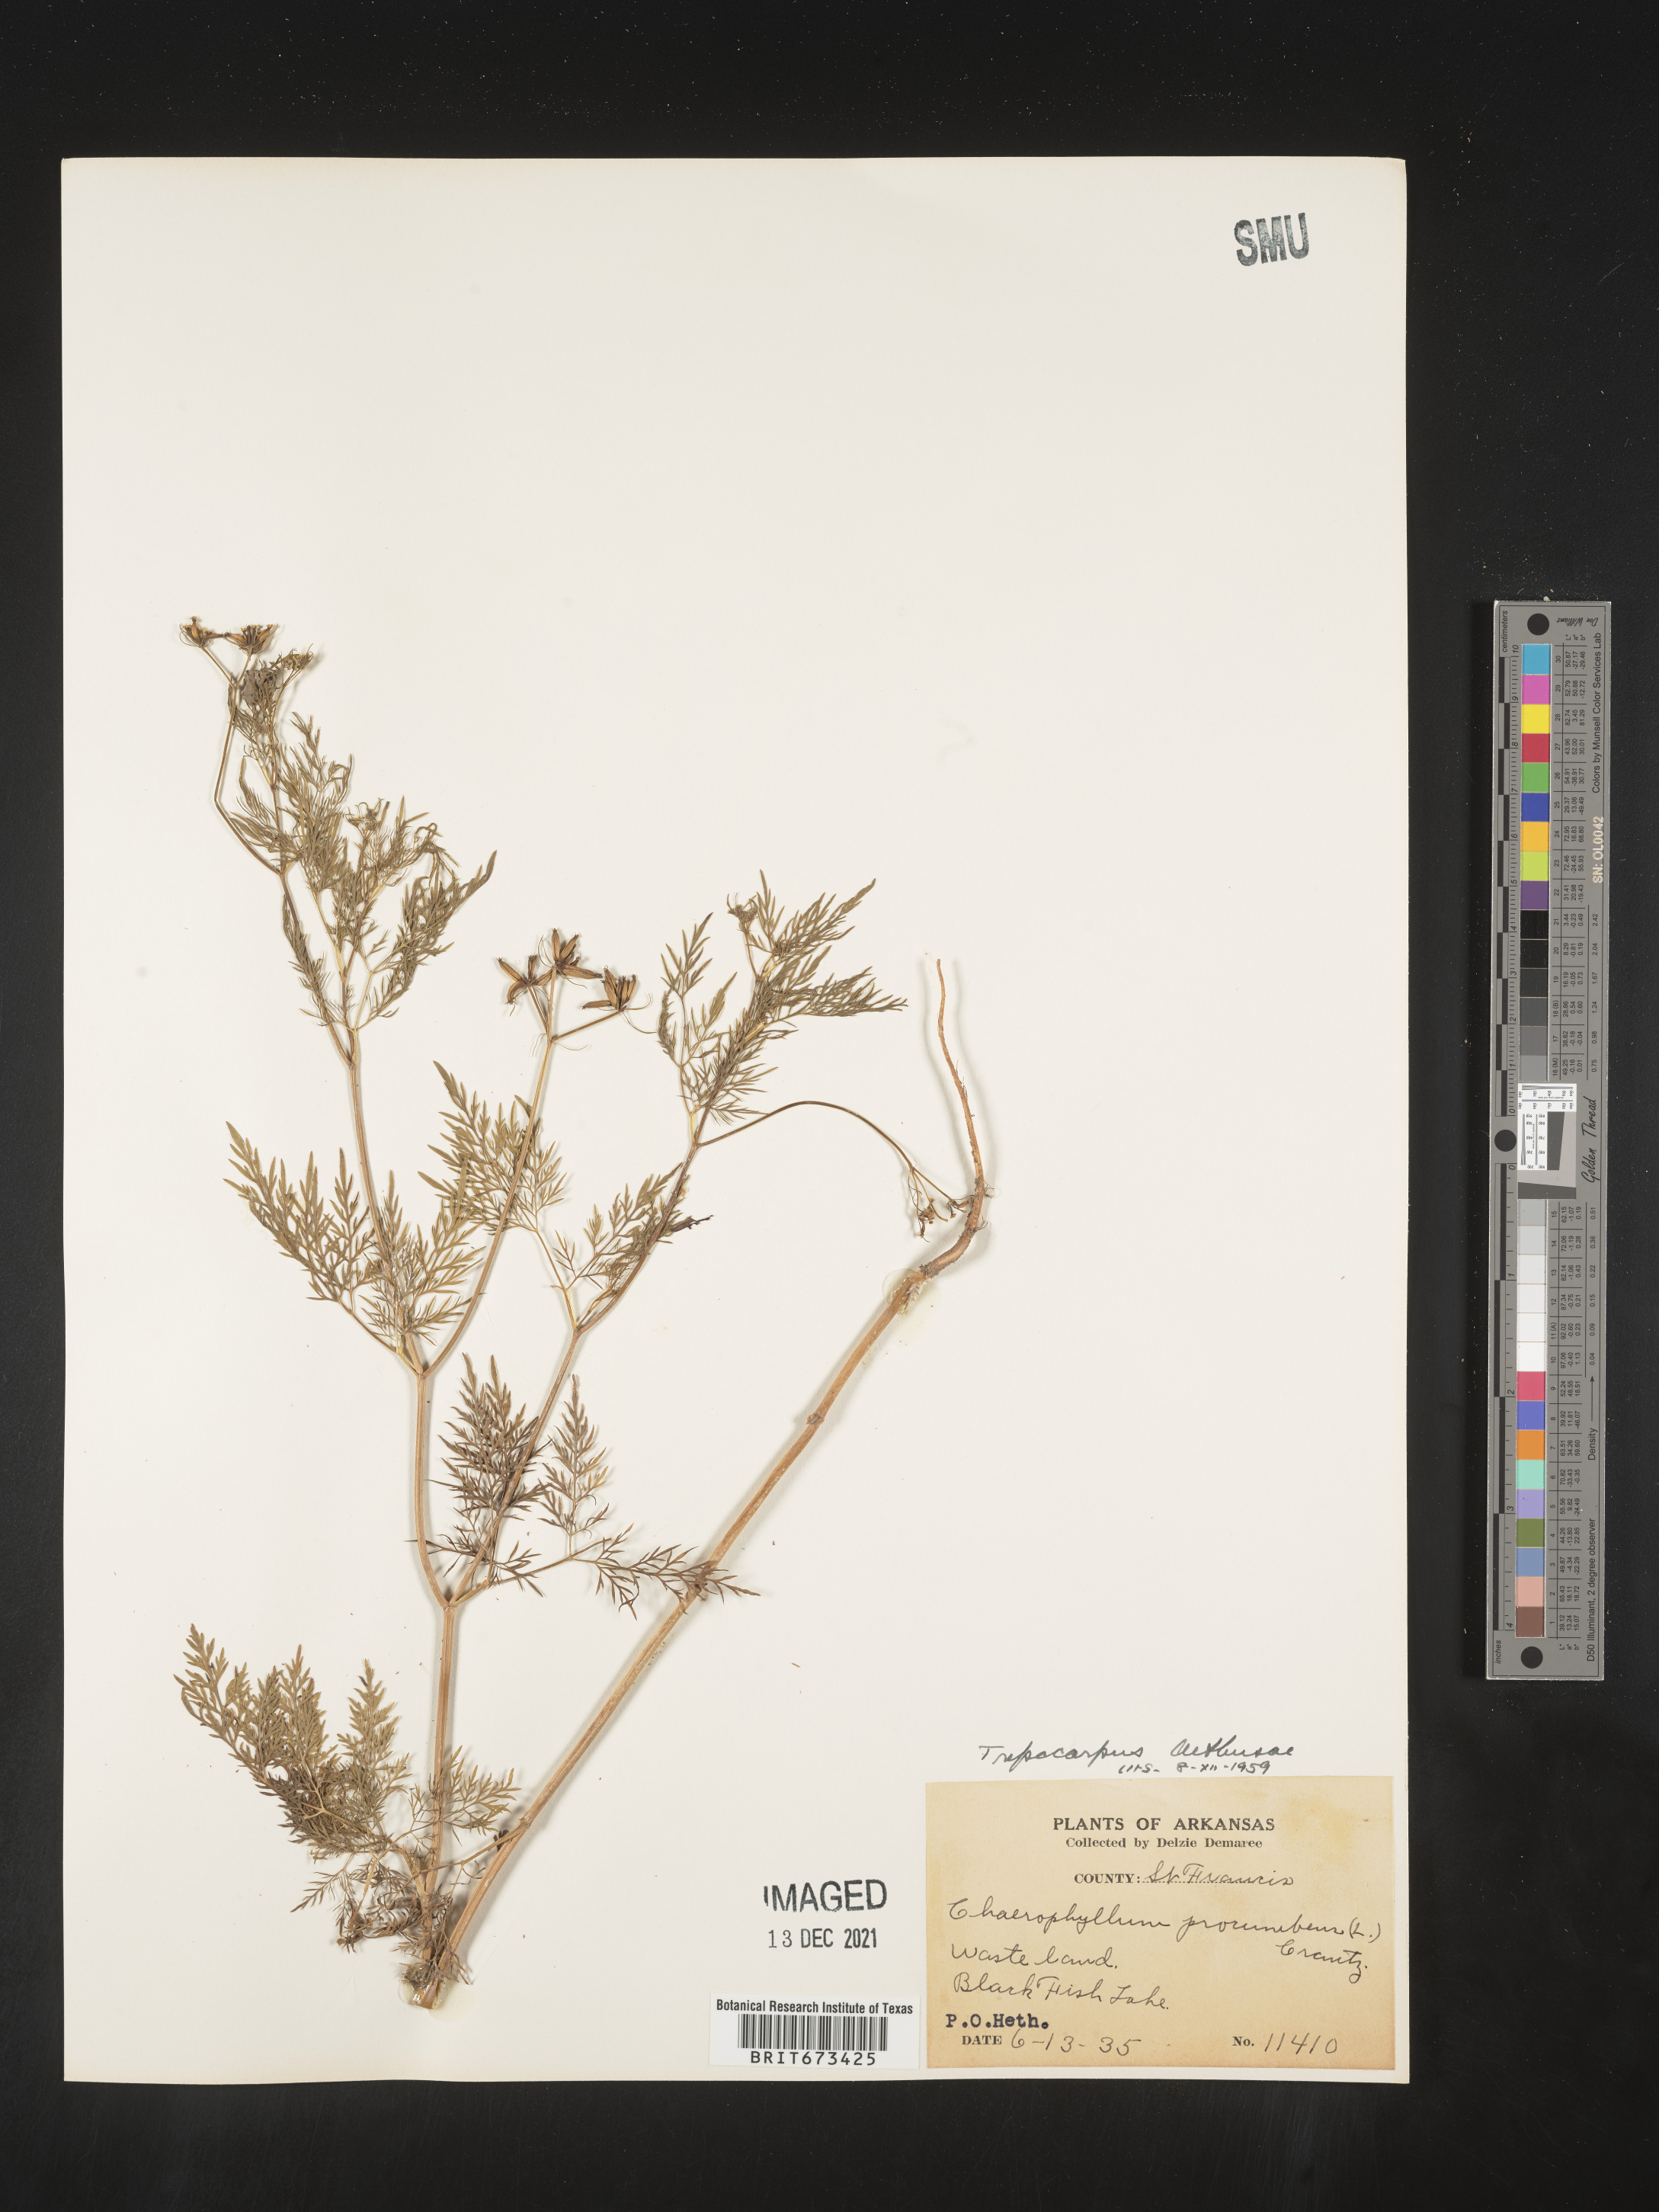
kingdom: Plantae
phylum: Tracheophyta
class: Magnoliopsida
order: Apiales
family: Apiaceae
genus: Trepocarpus
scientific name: Trepocarpus aethusae
